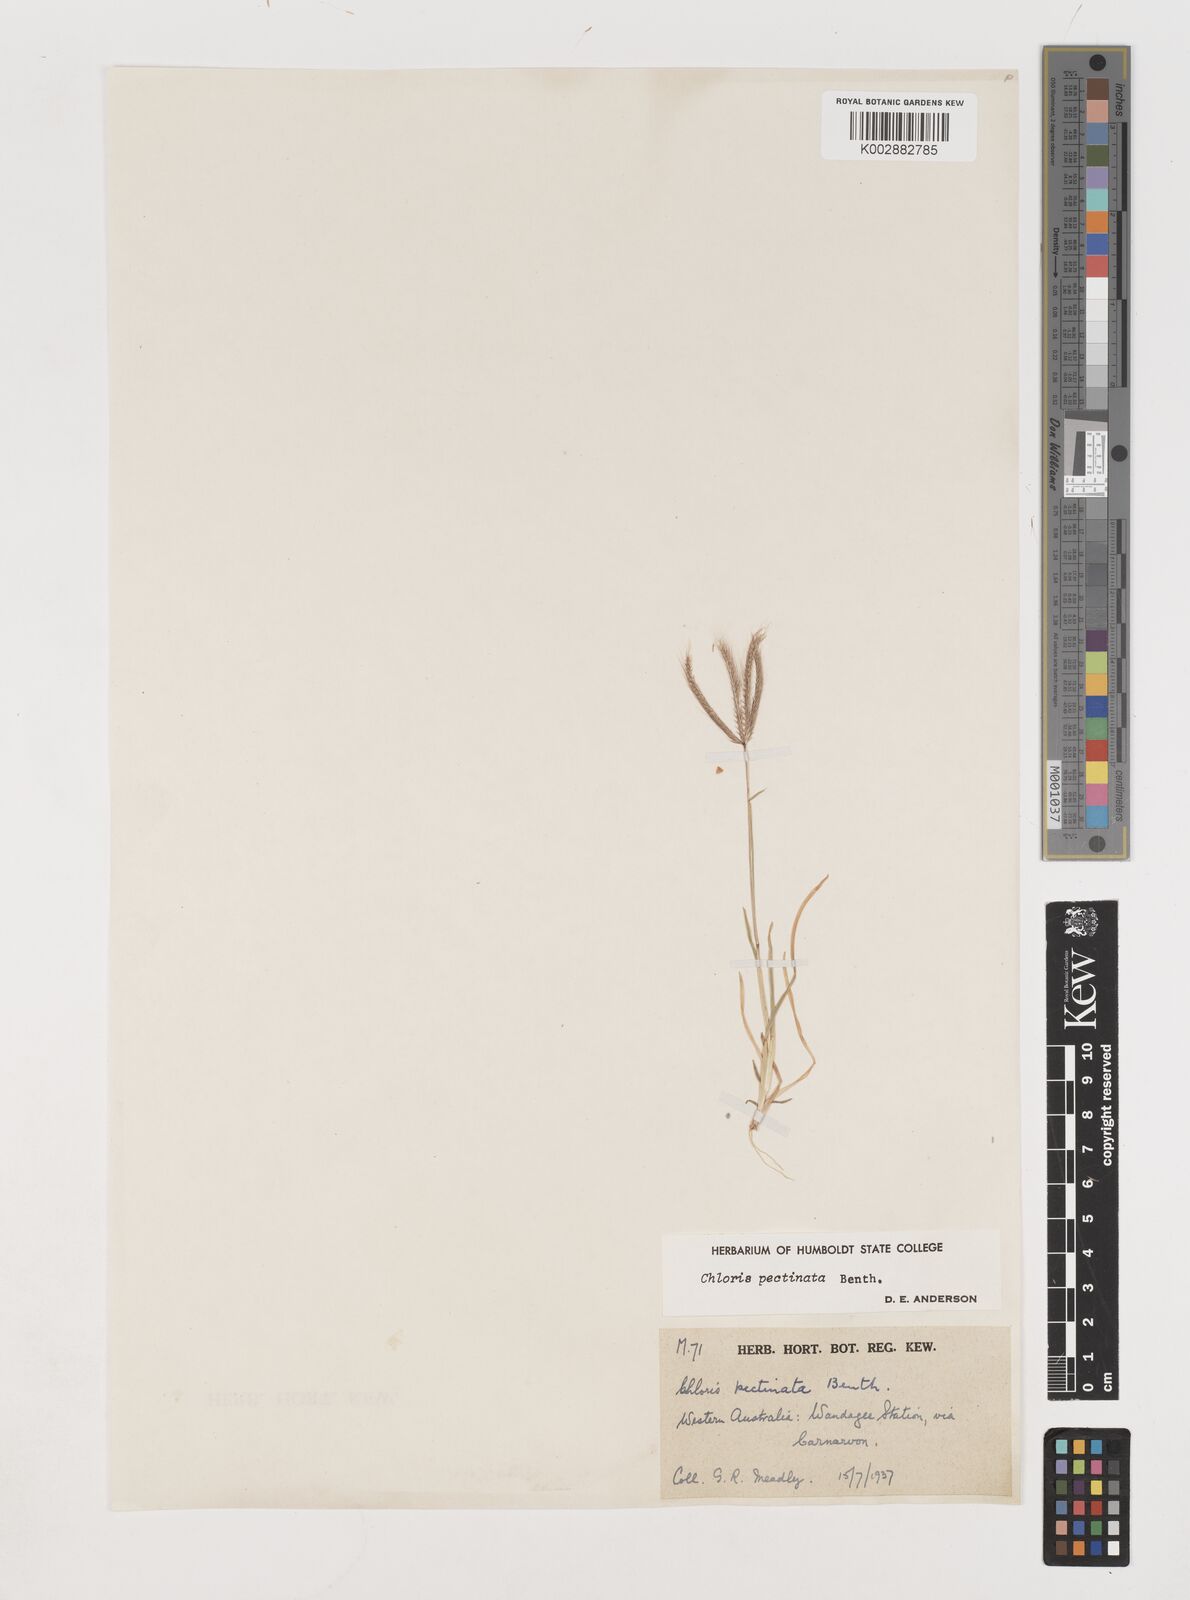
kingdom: Plantae
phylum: Tracheophyta
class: Liliopsida
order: Poales
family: Poaceae
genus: Chloris
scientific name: Chloris pectinata
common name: Comb windmill grass
